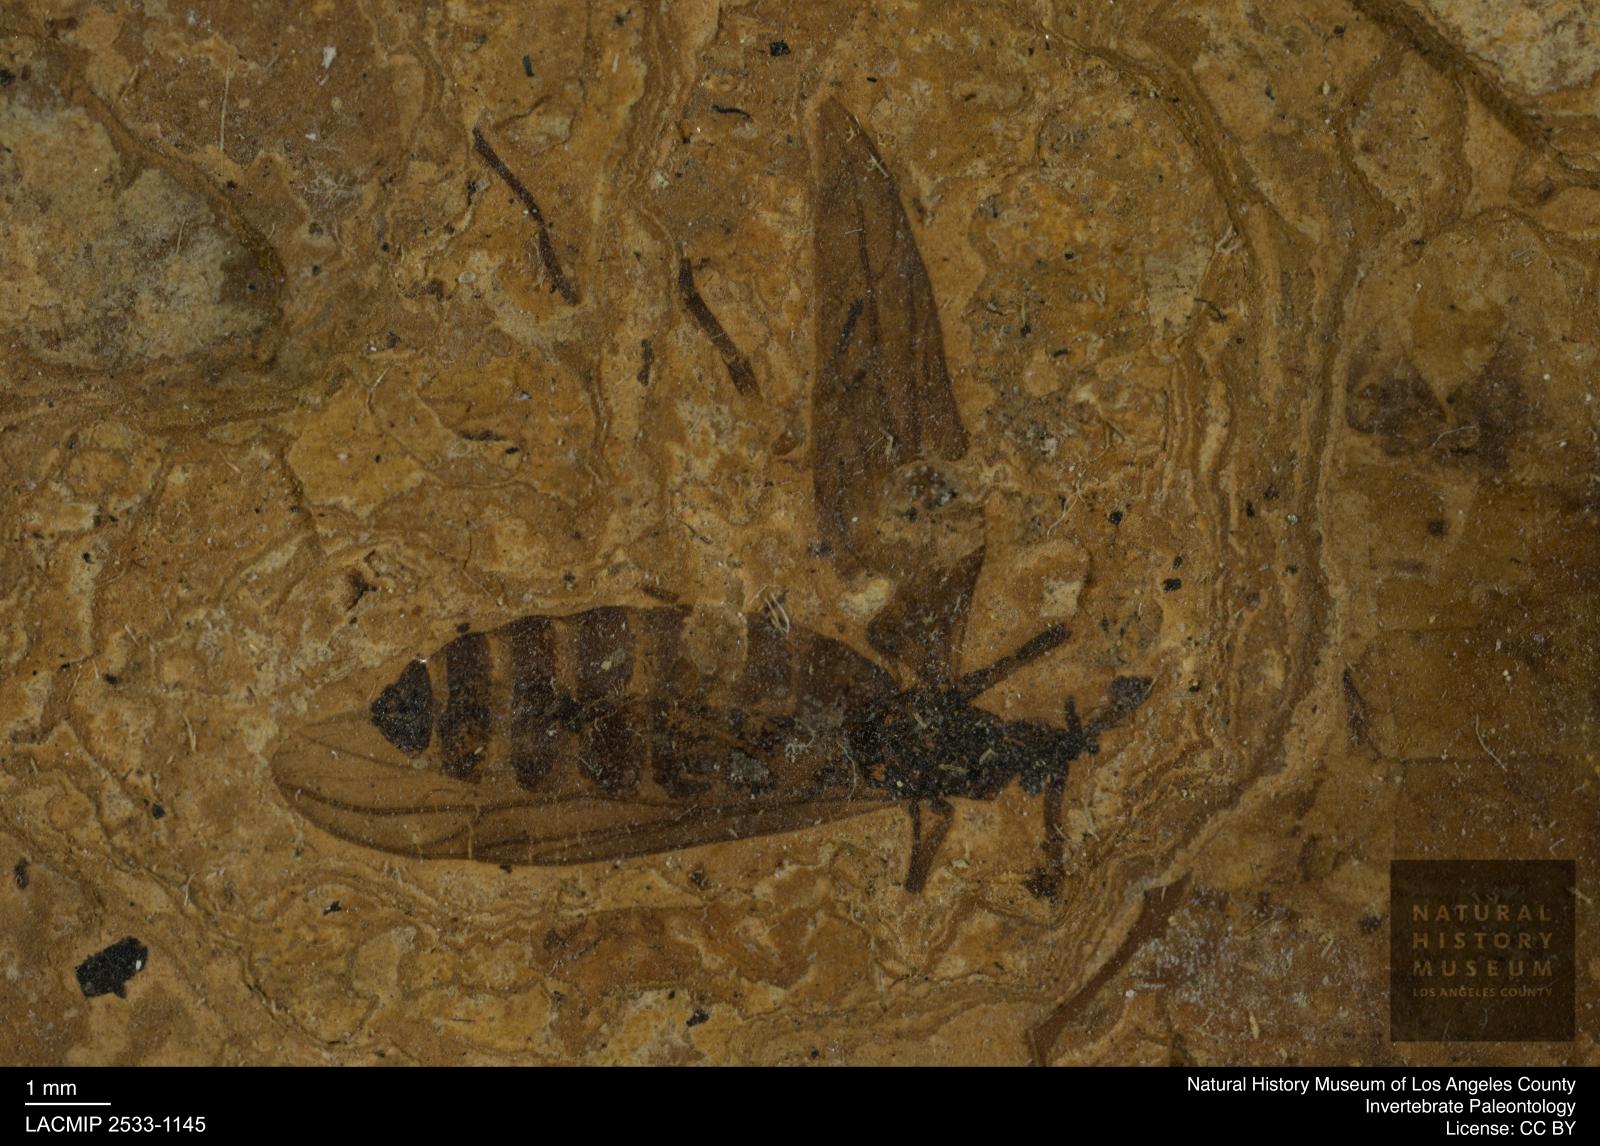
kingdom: Animalia
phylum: Arthropoda
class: Insecta
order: Diptera
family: Bibionidae
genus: Plecia
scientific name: Plecia pinguis
